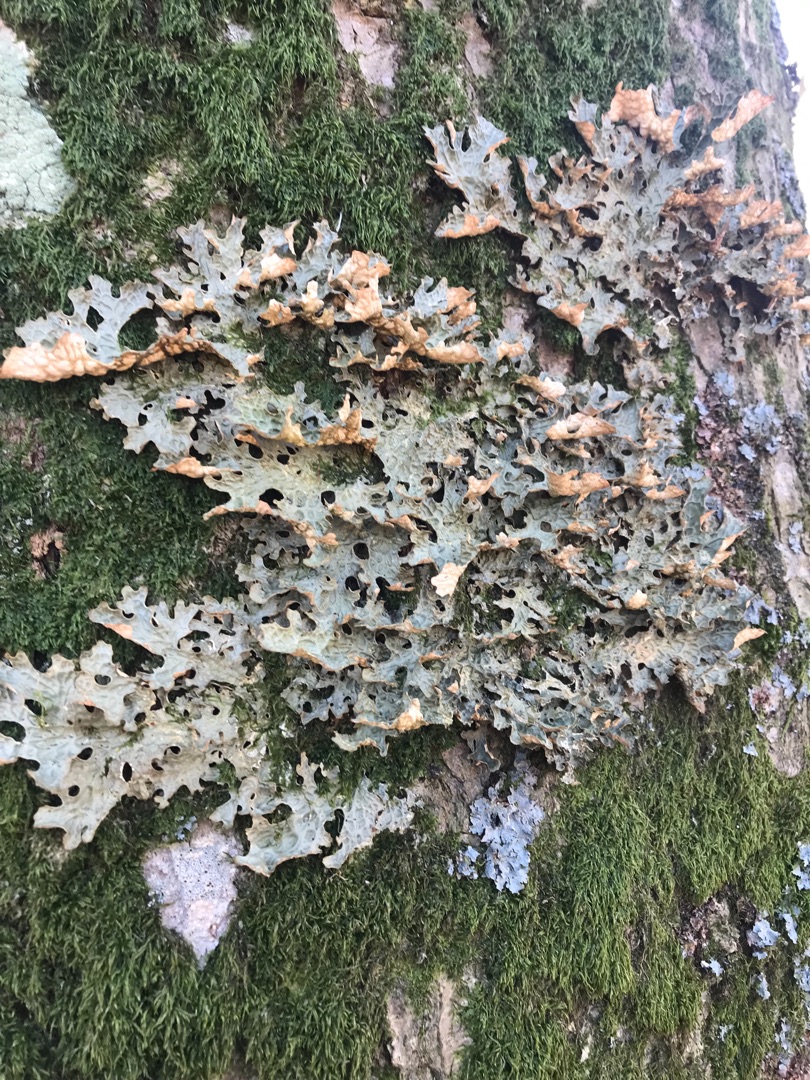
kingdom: Fungi
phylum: Ascomycota
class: Lecanoromycetes
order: Peltigerales
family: Lobariaceae
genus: Lobaria
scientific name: Lobaria pulmonaria
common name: Almindelig lungelav
